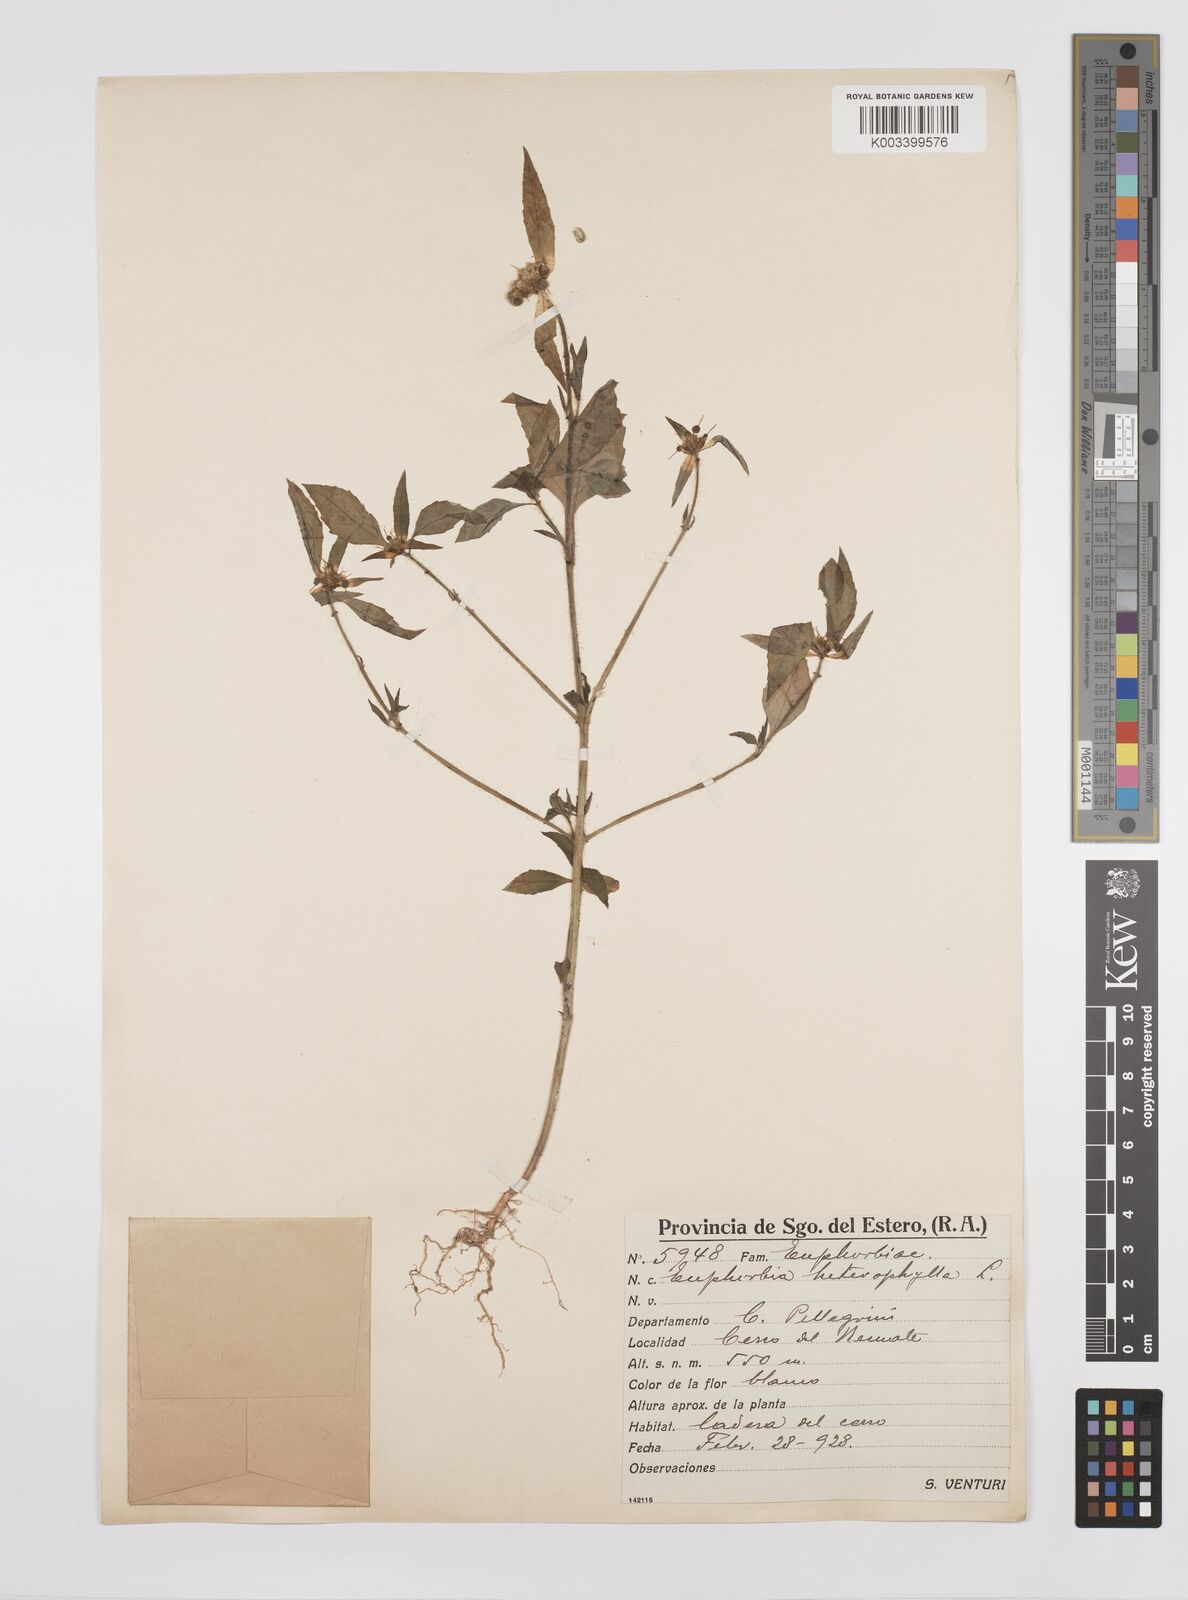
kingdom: Plantae
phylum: Tracheophyta
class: Magnoliopsida
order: Malpighiales
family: Euphorbiaceae
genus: Euphorbia
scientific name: Euphorbia
